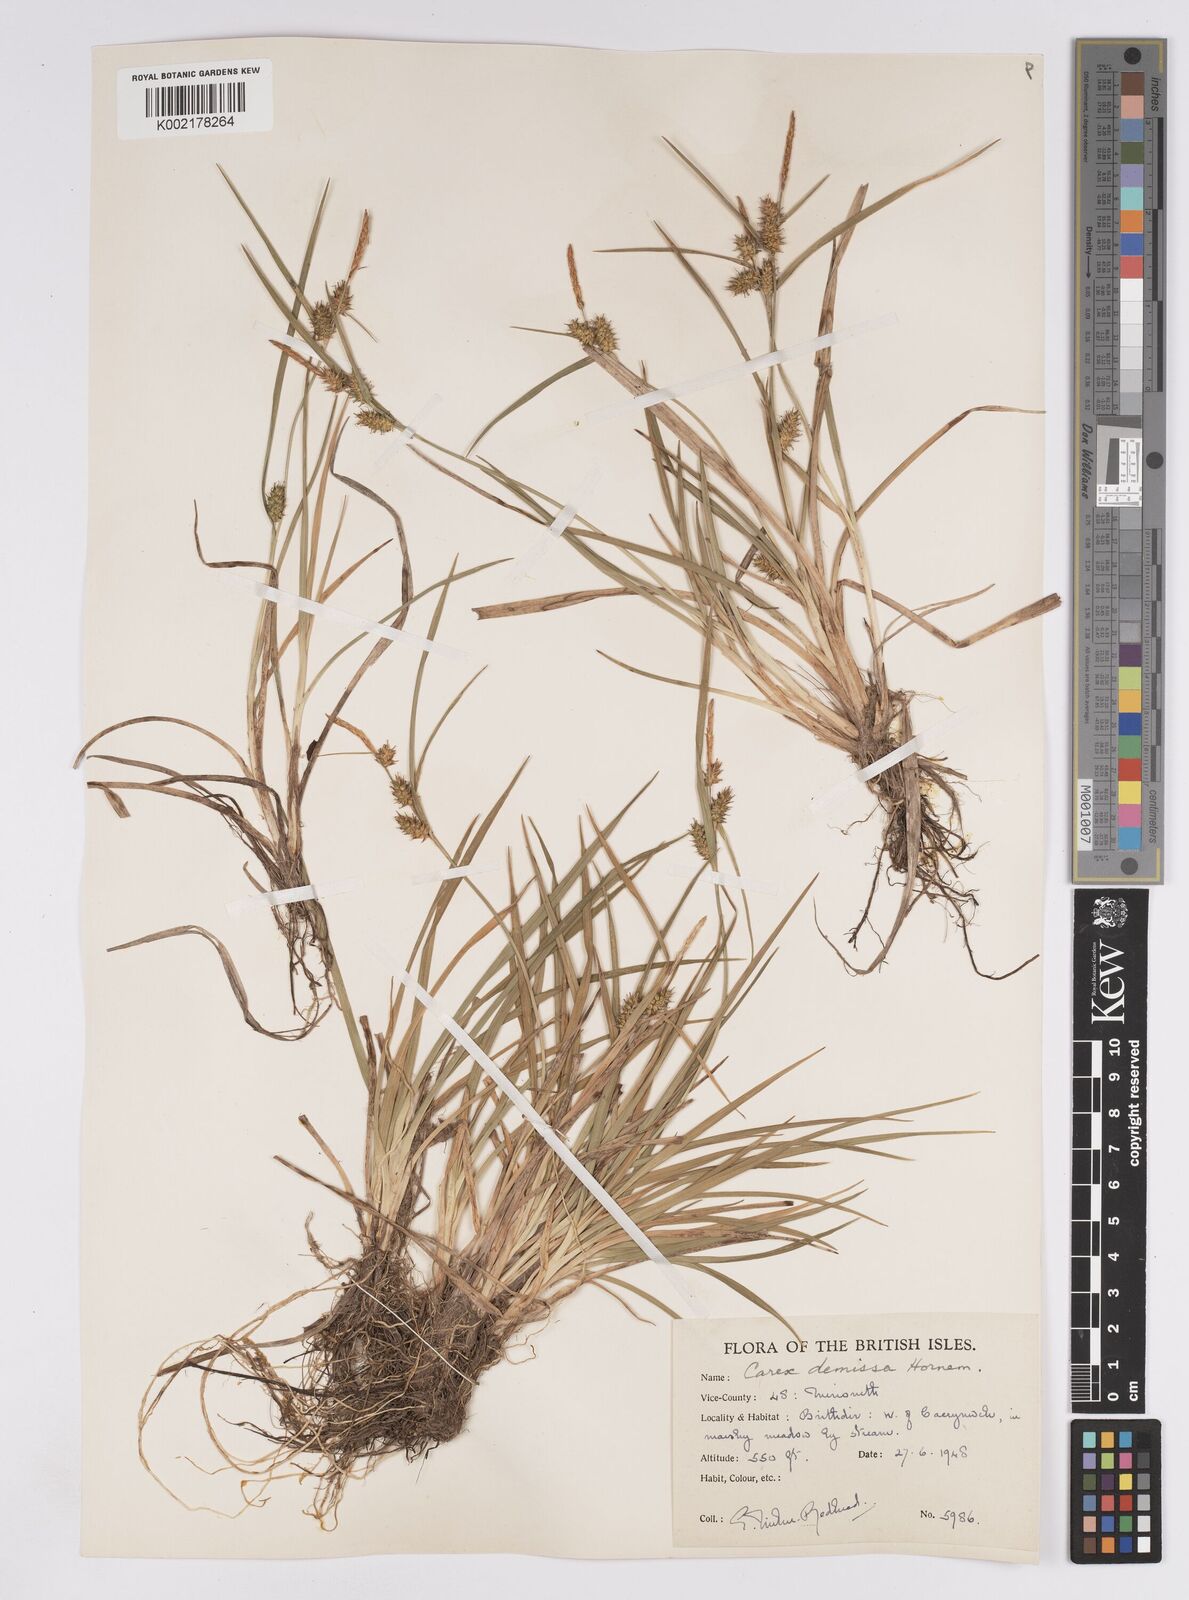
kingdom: Plantae
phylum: Tracheophyta
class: Liliopsida
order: Poales
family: Cyperaceae
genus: Carex
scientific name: Carex demissa
